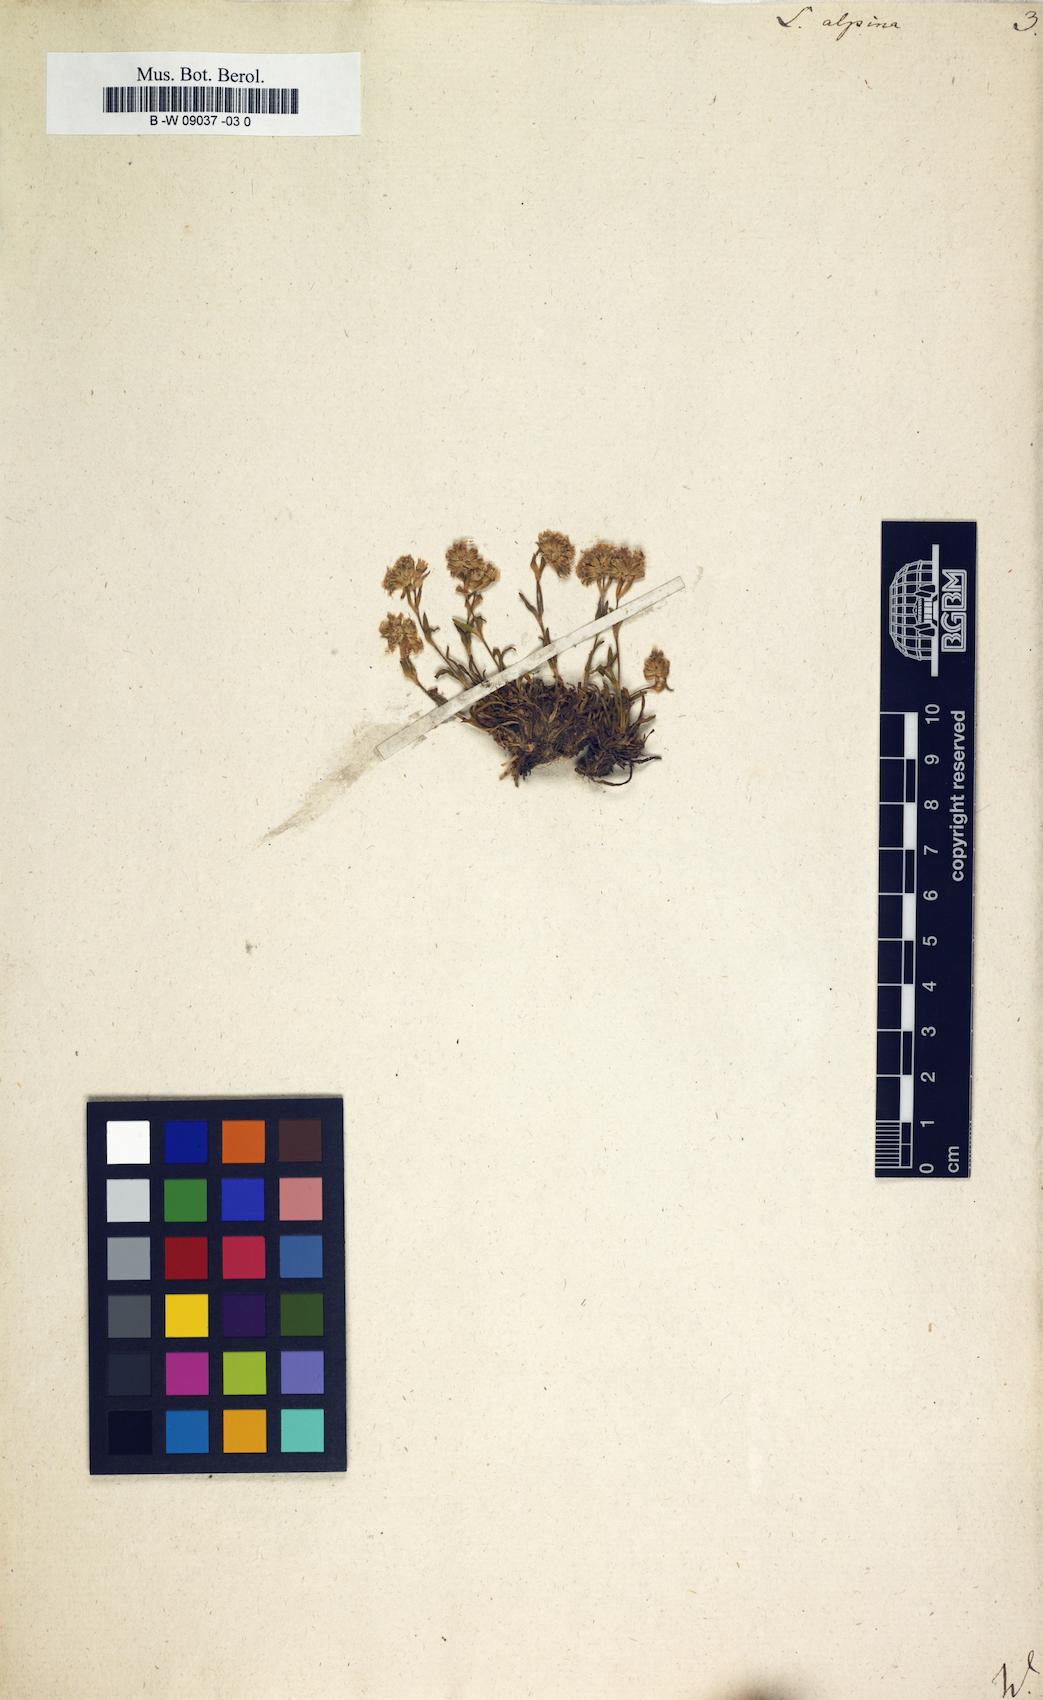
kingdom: Plantae
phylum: Tracheophyta
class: Magnoliopsida
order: Caryophyllales
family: Caryophyllaceae
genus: Viscaria
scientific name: Viscaria alpina
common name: Alpine campion
